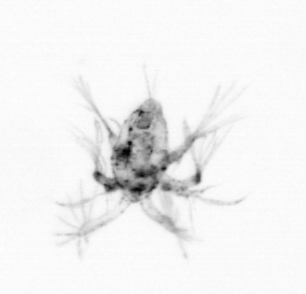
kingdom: Animalia
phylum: Arthropoda
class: Copepoda
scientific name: Copepoda
